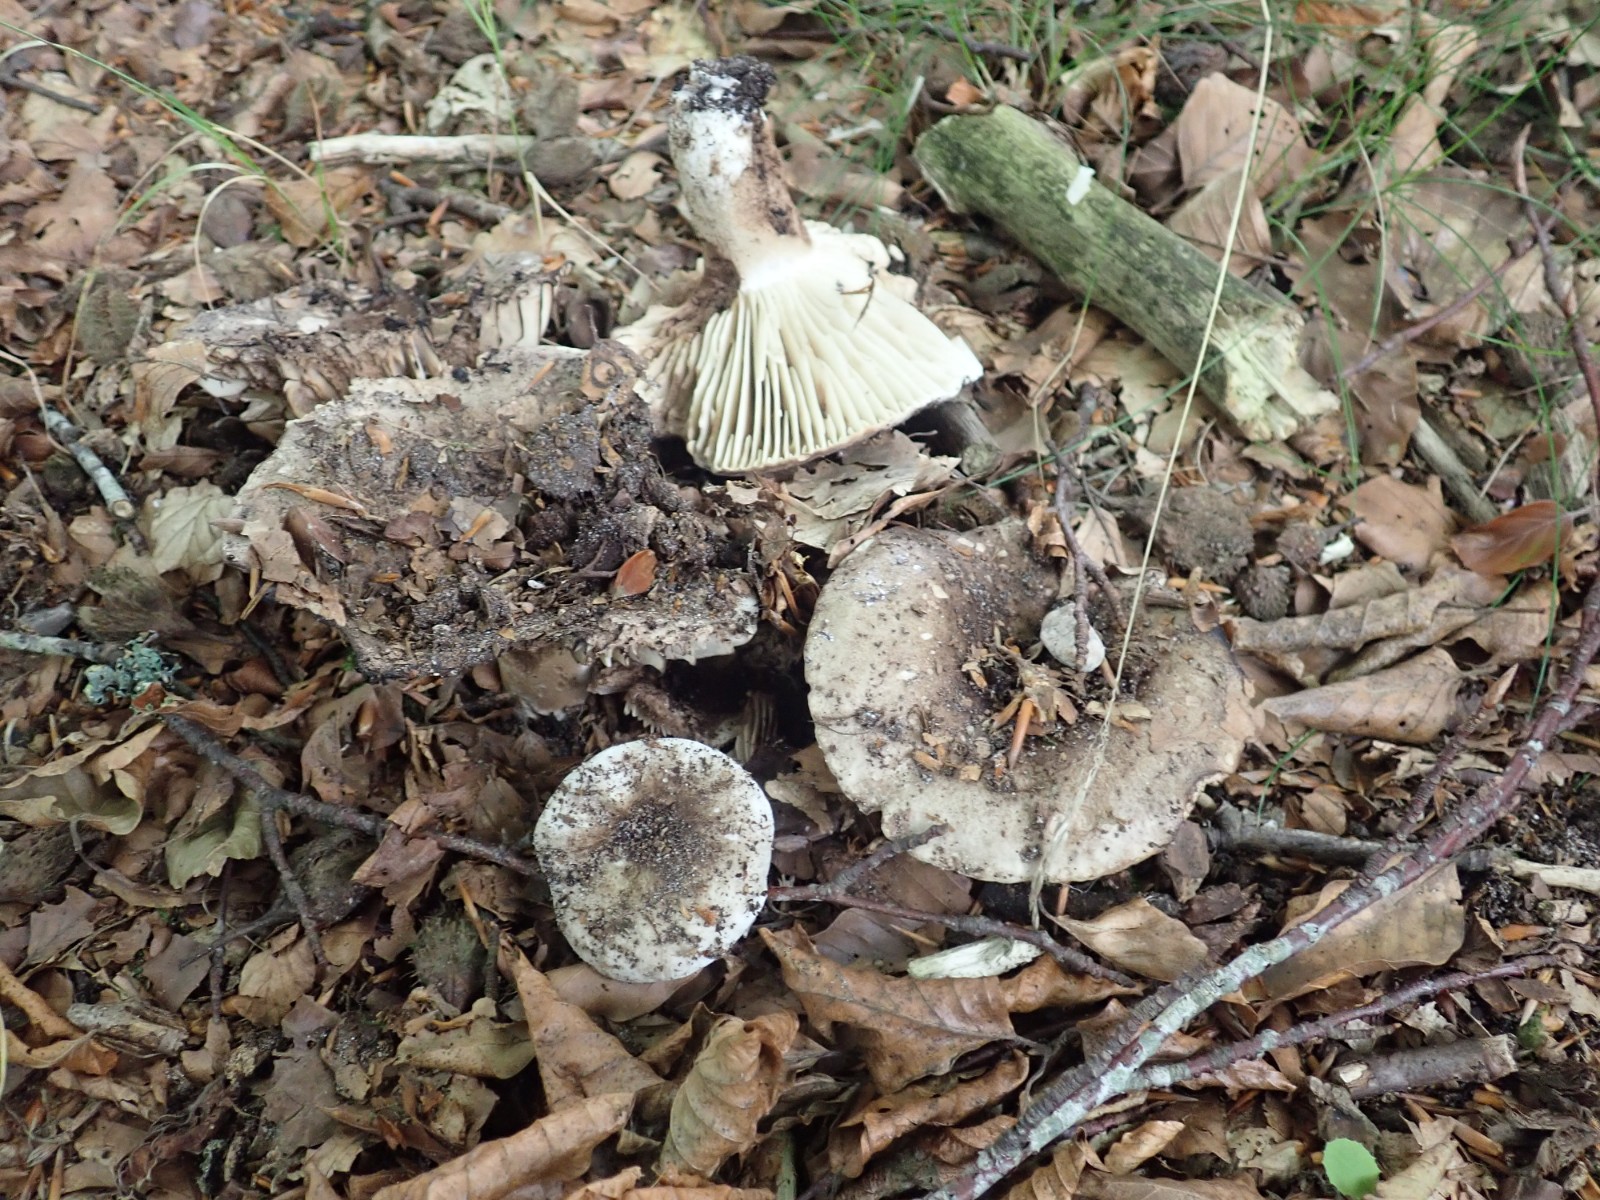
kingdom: Fungi
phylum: Basidiomycota
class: Agaricomycetes
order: Russulales
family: Russulaceae
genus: Russula
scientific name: Russula adusta
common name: sværtende skørhat
